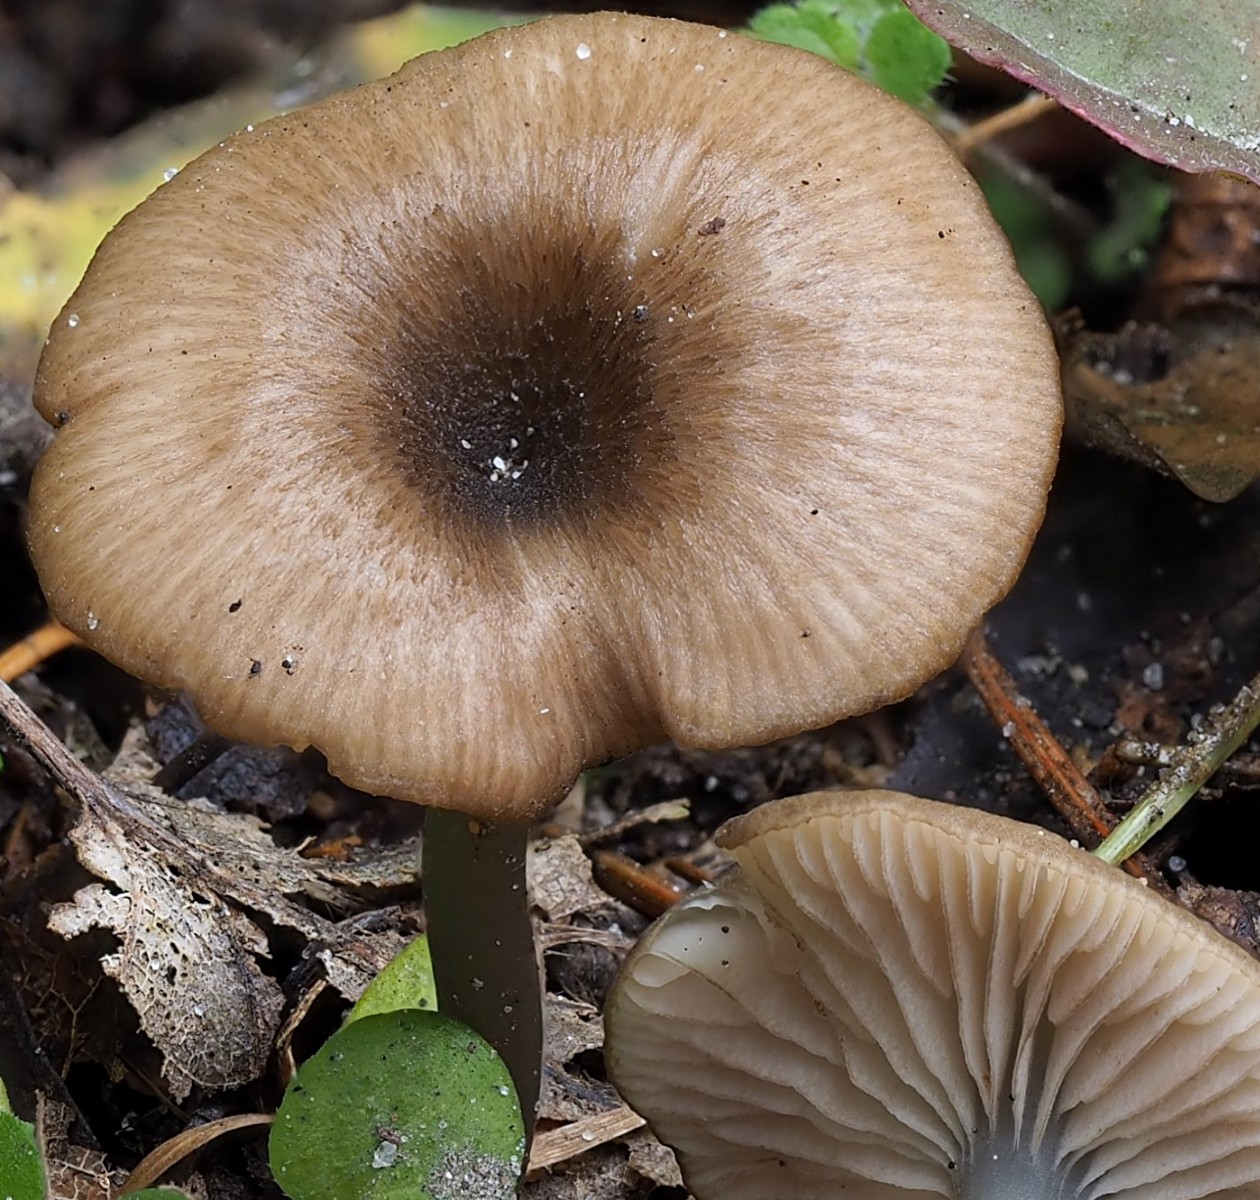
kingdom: Fungi
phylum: Basidiomycota
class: Agaricomycetes
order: Agaricales
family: Entolomataceae
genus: Entoloma
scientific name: Entoloma incarnatofuscescens
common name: tragt-rødblad
